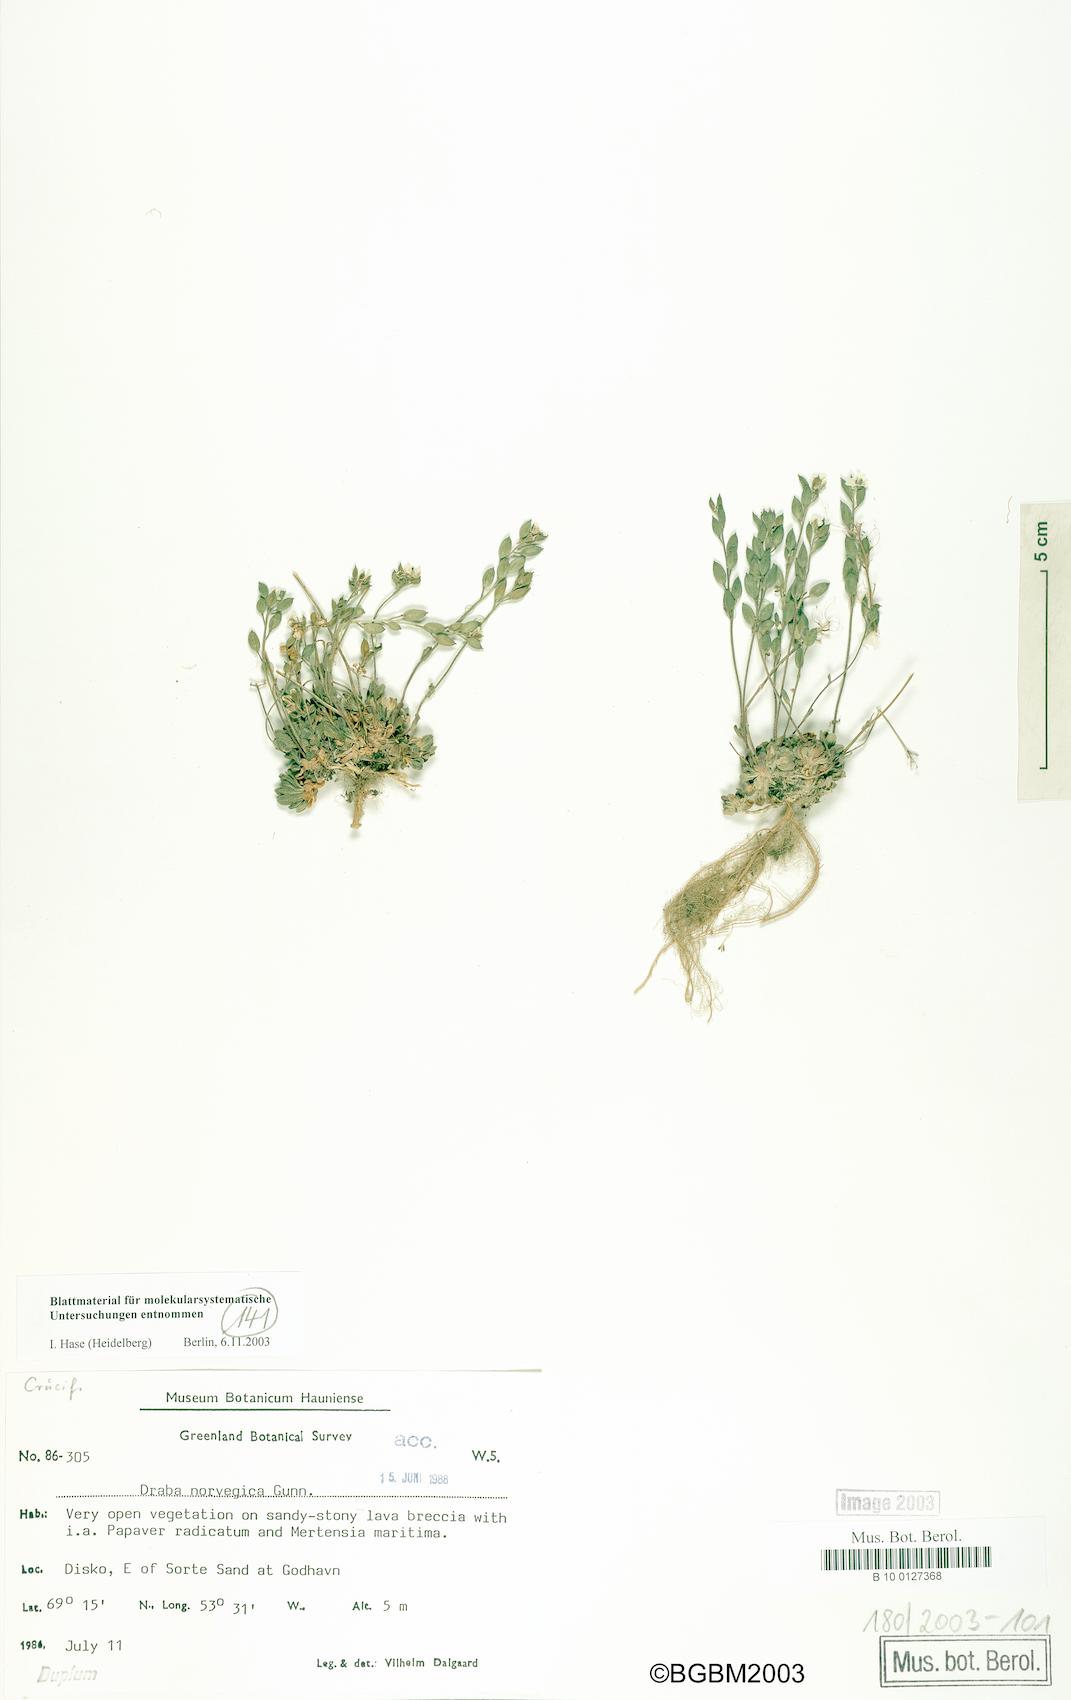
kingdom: Plantae
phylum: Tracheophyta
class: Magnoliopsida
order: Brassicales
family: Brassicaceae
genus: Draba
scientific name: Draba norvegica
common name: Rock whitlowgrass
